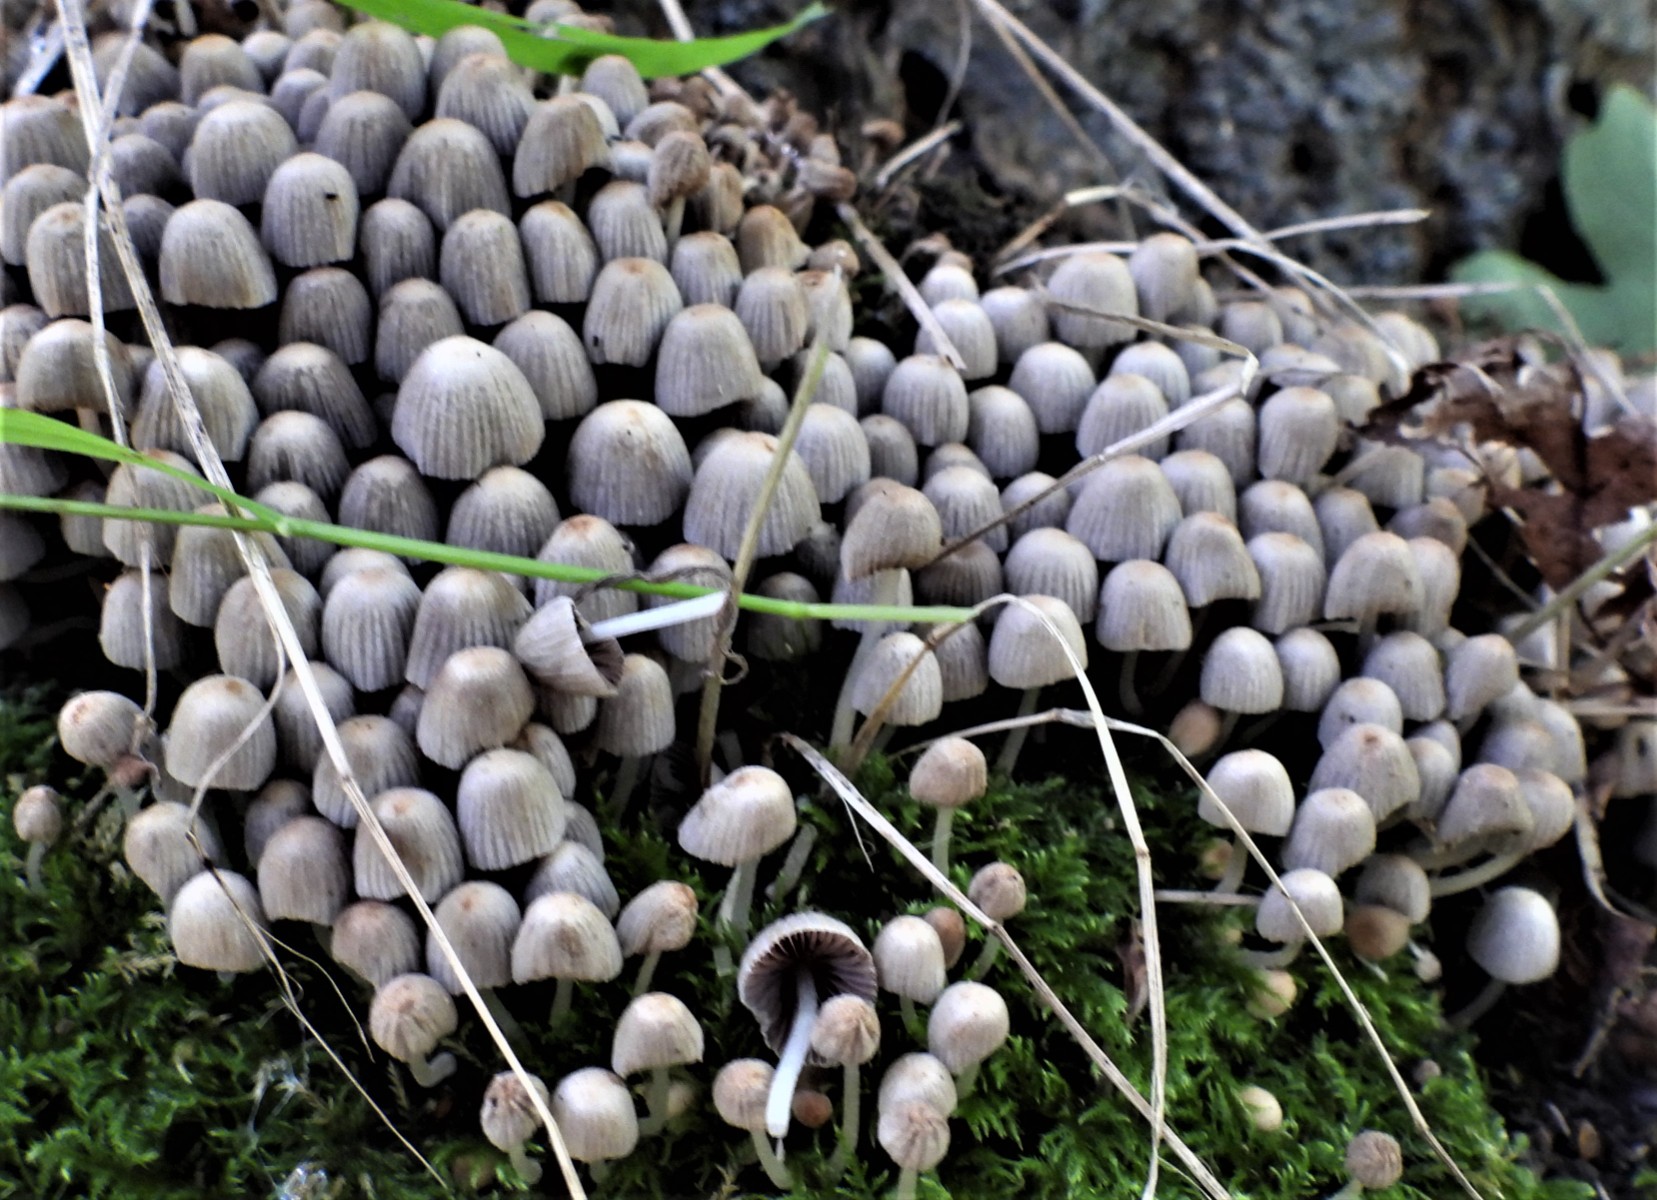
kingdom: Fungi
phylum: Basidiomycota
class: Agaricomycetes
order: Agaricales
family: Psathyrellaceae
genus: Coprinellus
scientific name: Coprinellus disseminatus
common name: bredsået blækhat
